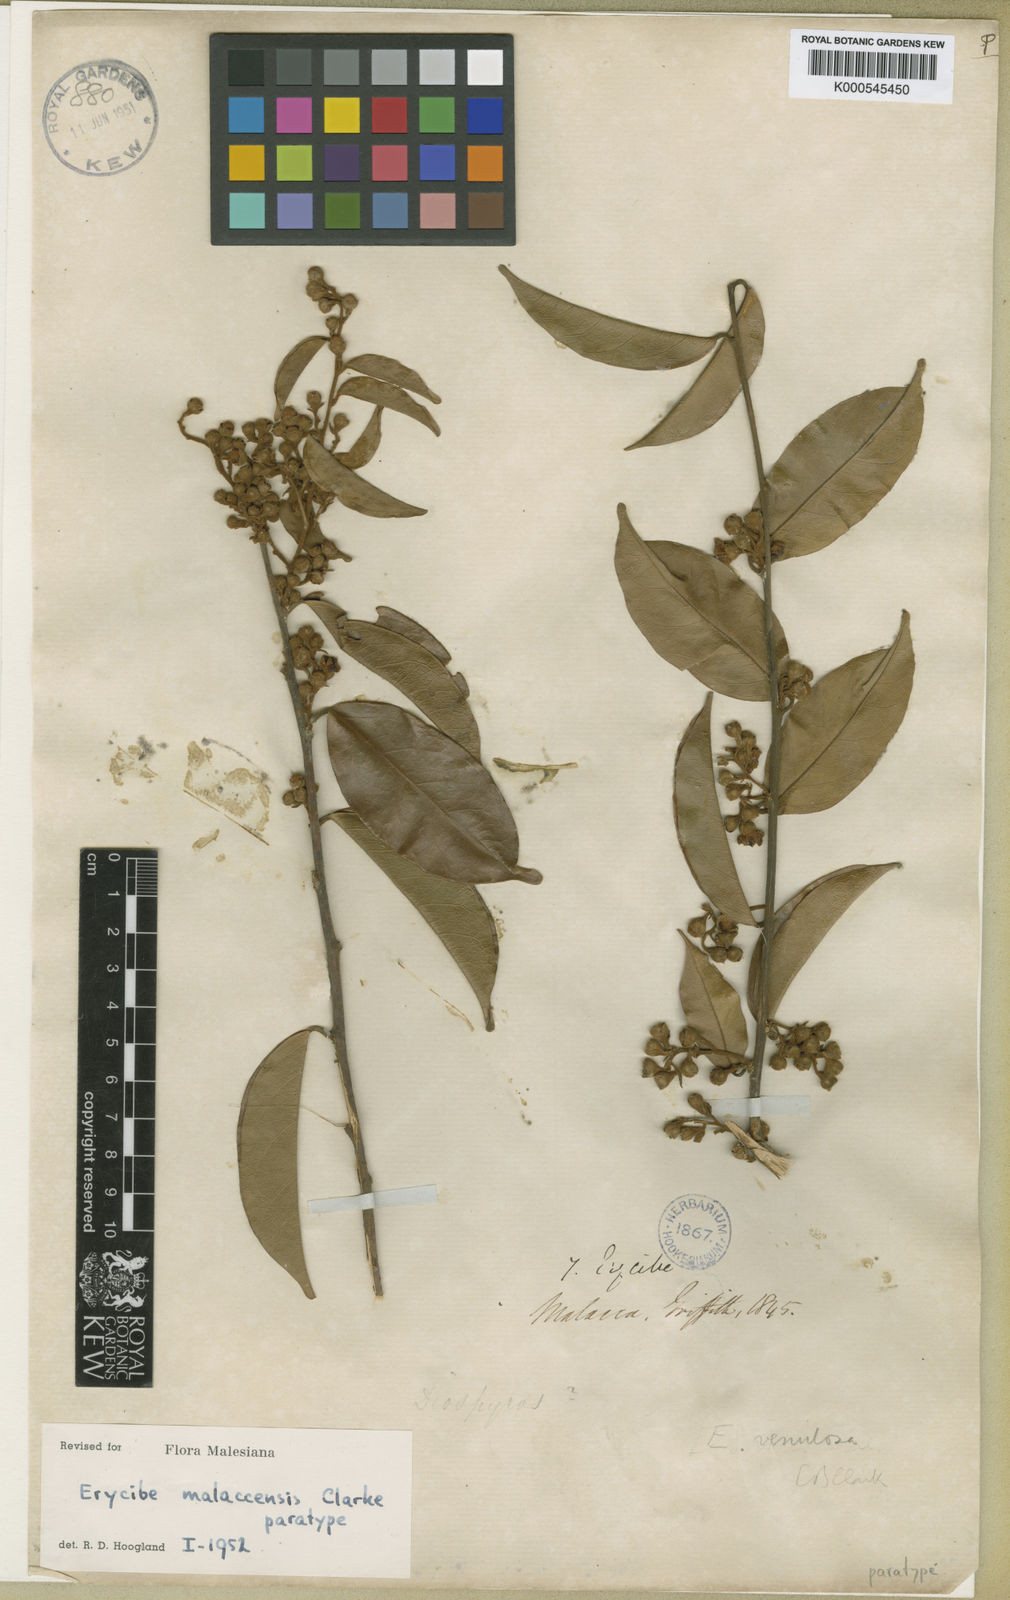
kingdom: Plantae
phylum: Tracheophyta
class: Magnoliopsida
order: Solanales
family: Convolvulaceae
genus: Erycibe
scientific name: Erycibe malaccensis
